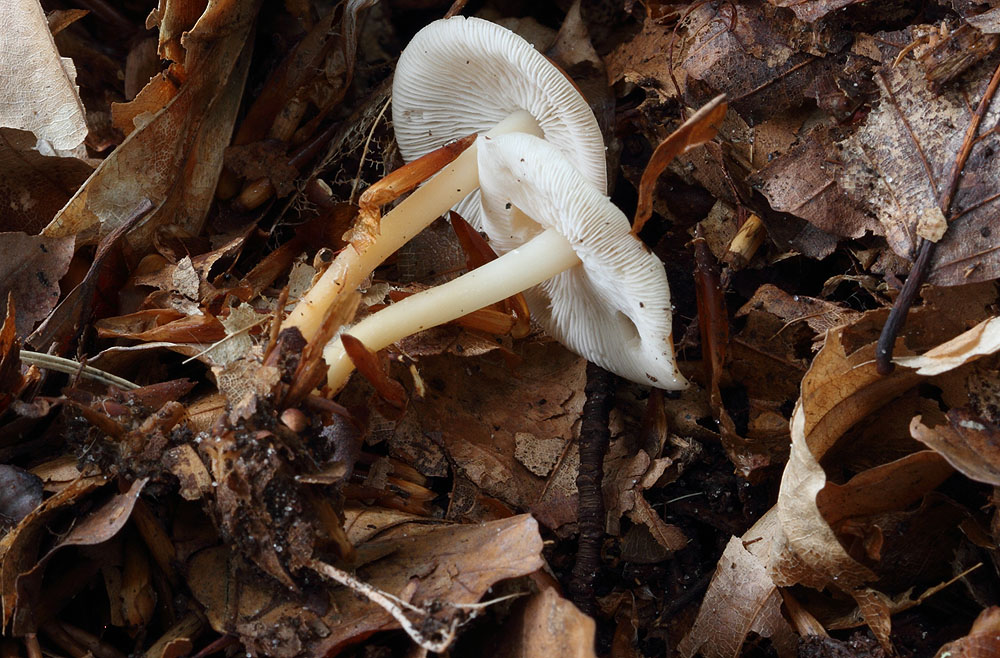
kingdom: Fungi
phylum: Basidiomycota
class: Agaricomycetes
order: Agaricales
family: Omphalotaceae
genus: Gymnopus
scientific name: Gymnopus dryophilus
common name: løv-fladhat
